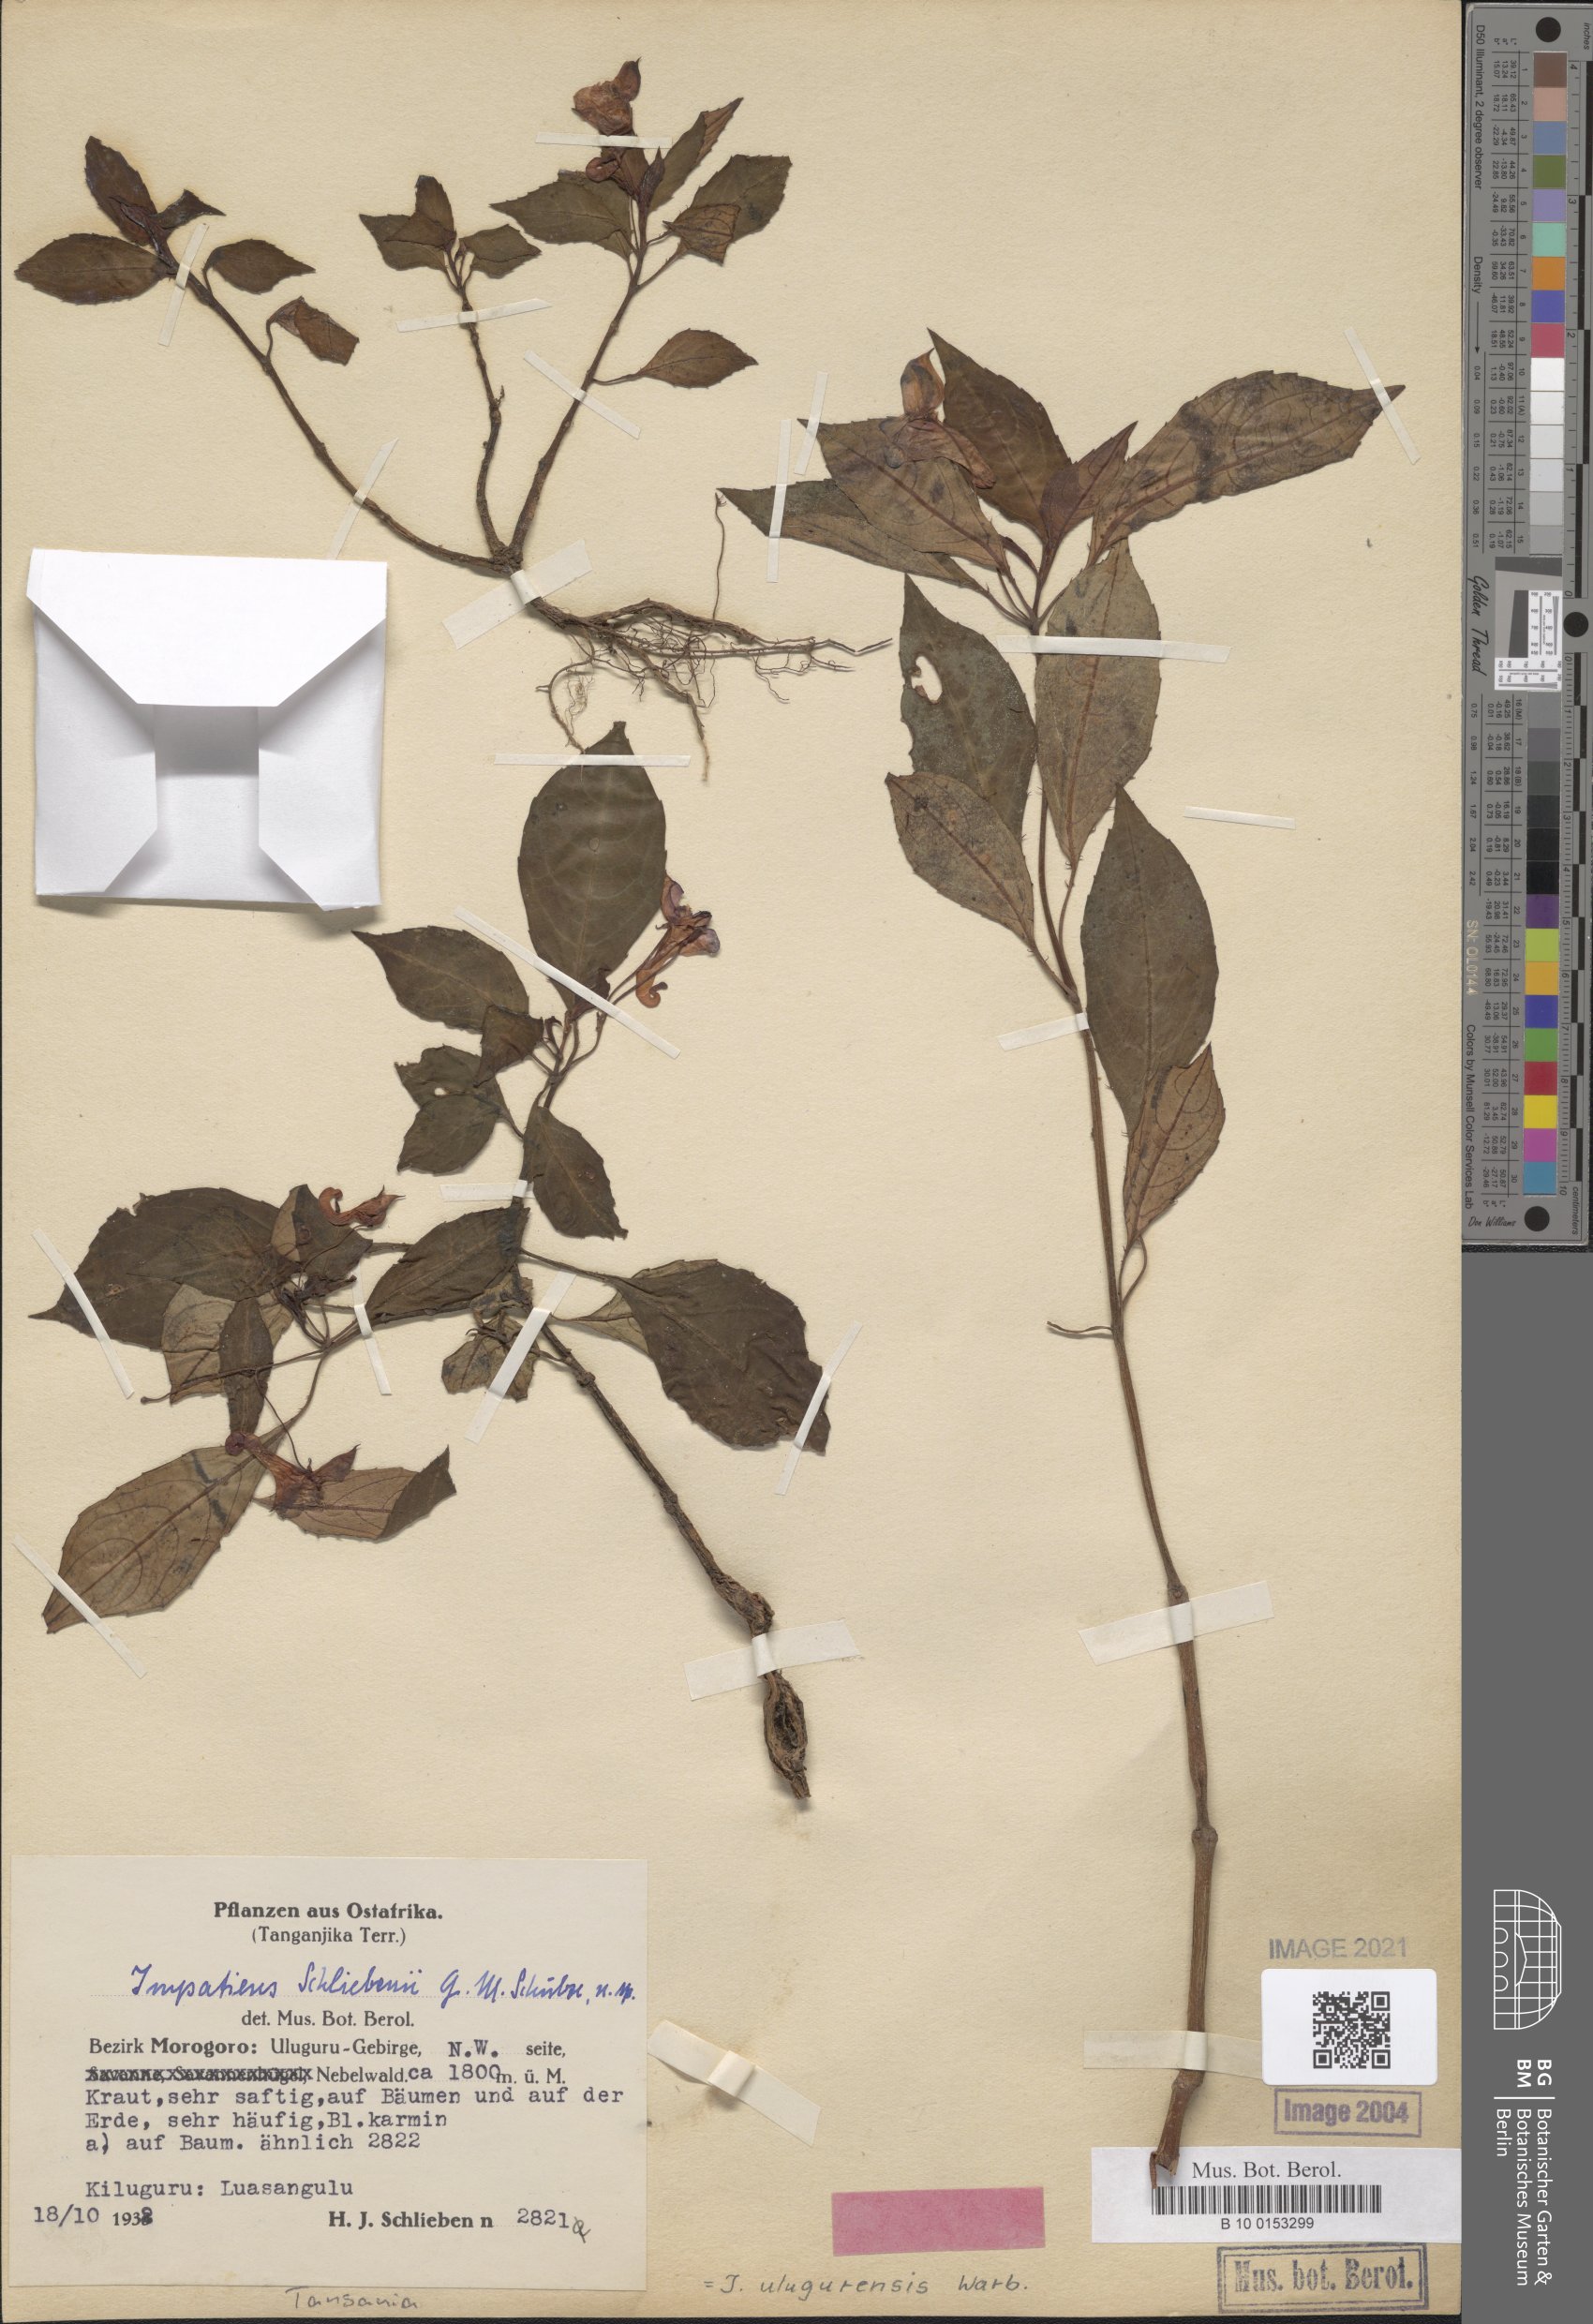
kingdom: Plantae
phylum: Tracheophyta
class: Magnoliopsida
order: Ericales
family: Balsaminaceae
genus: Impatiens
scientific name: Impatiens ulugurensis
